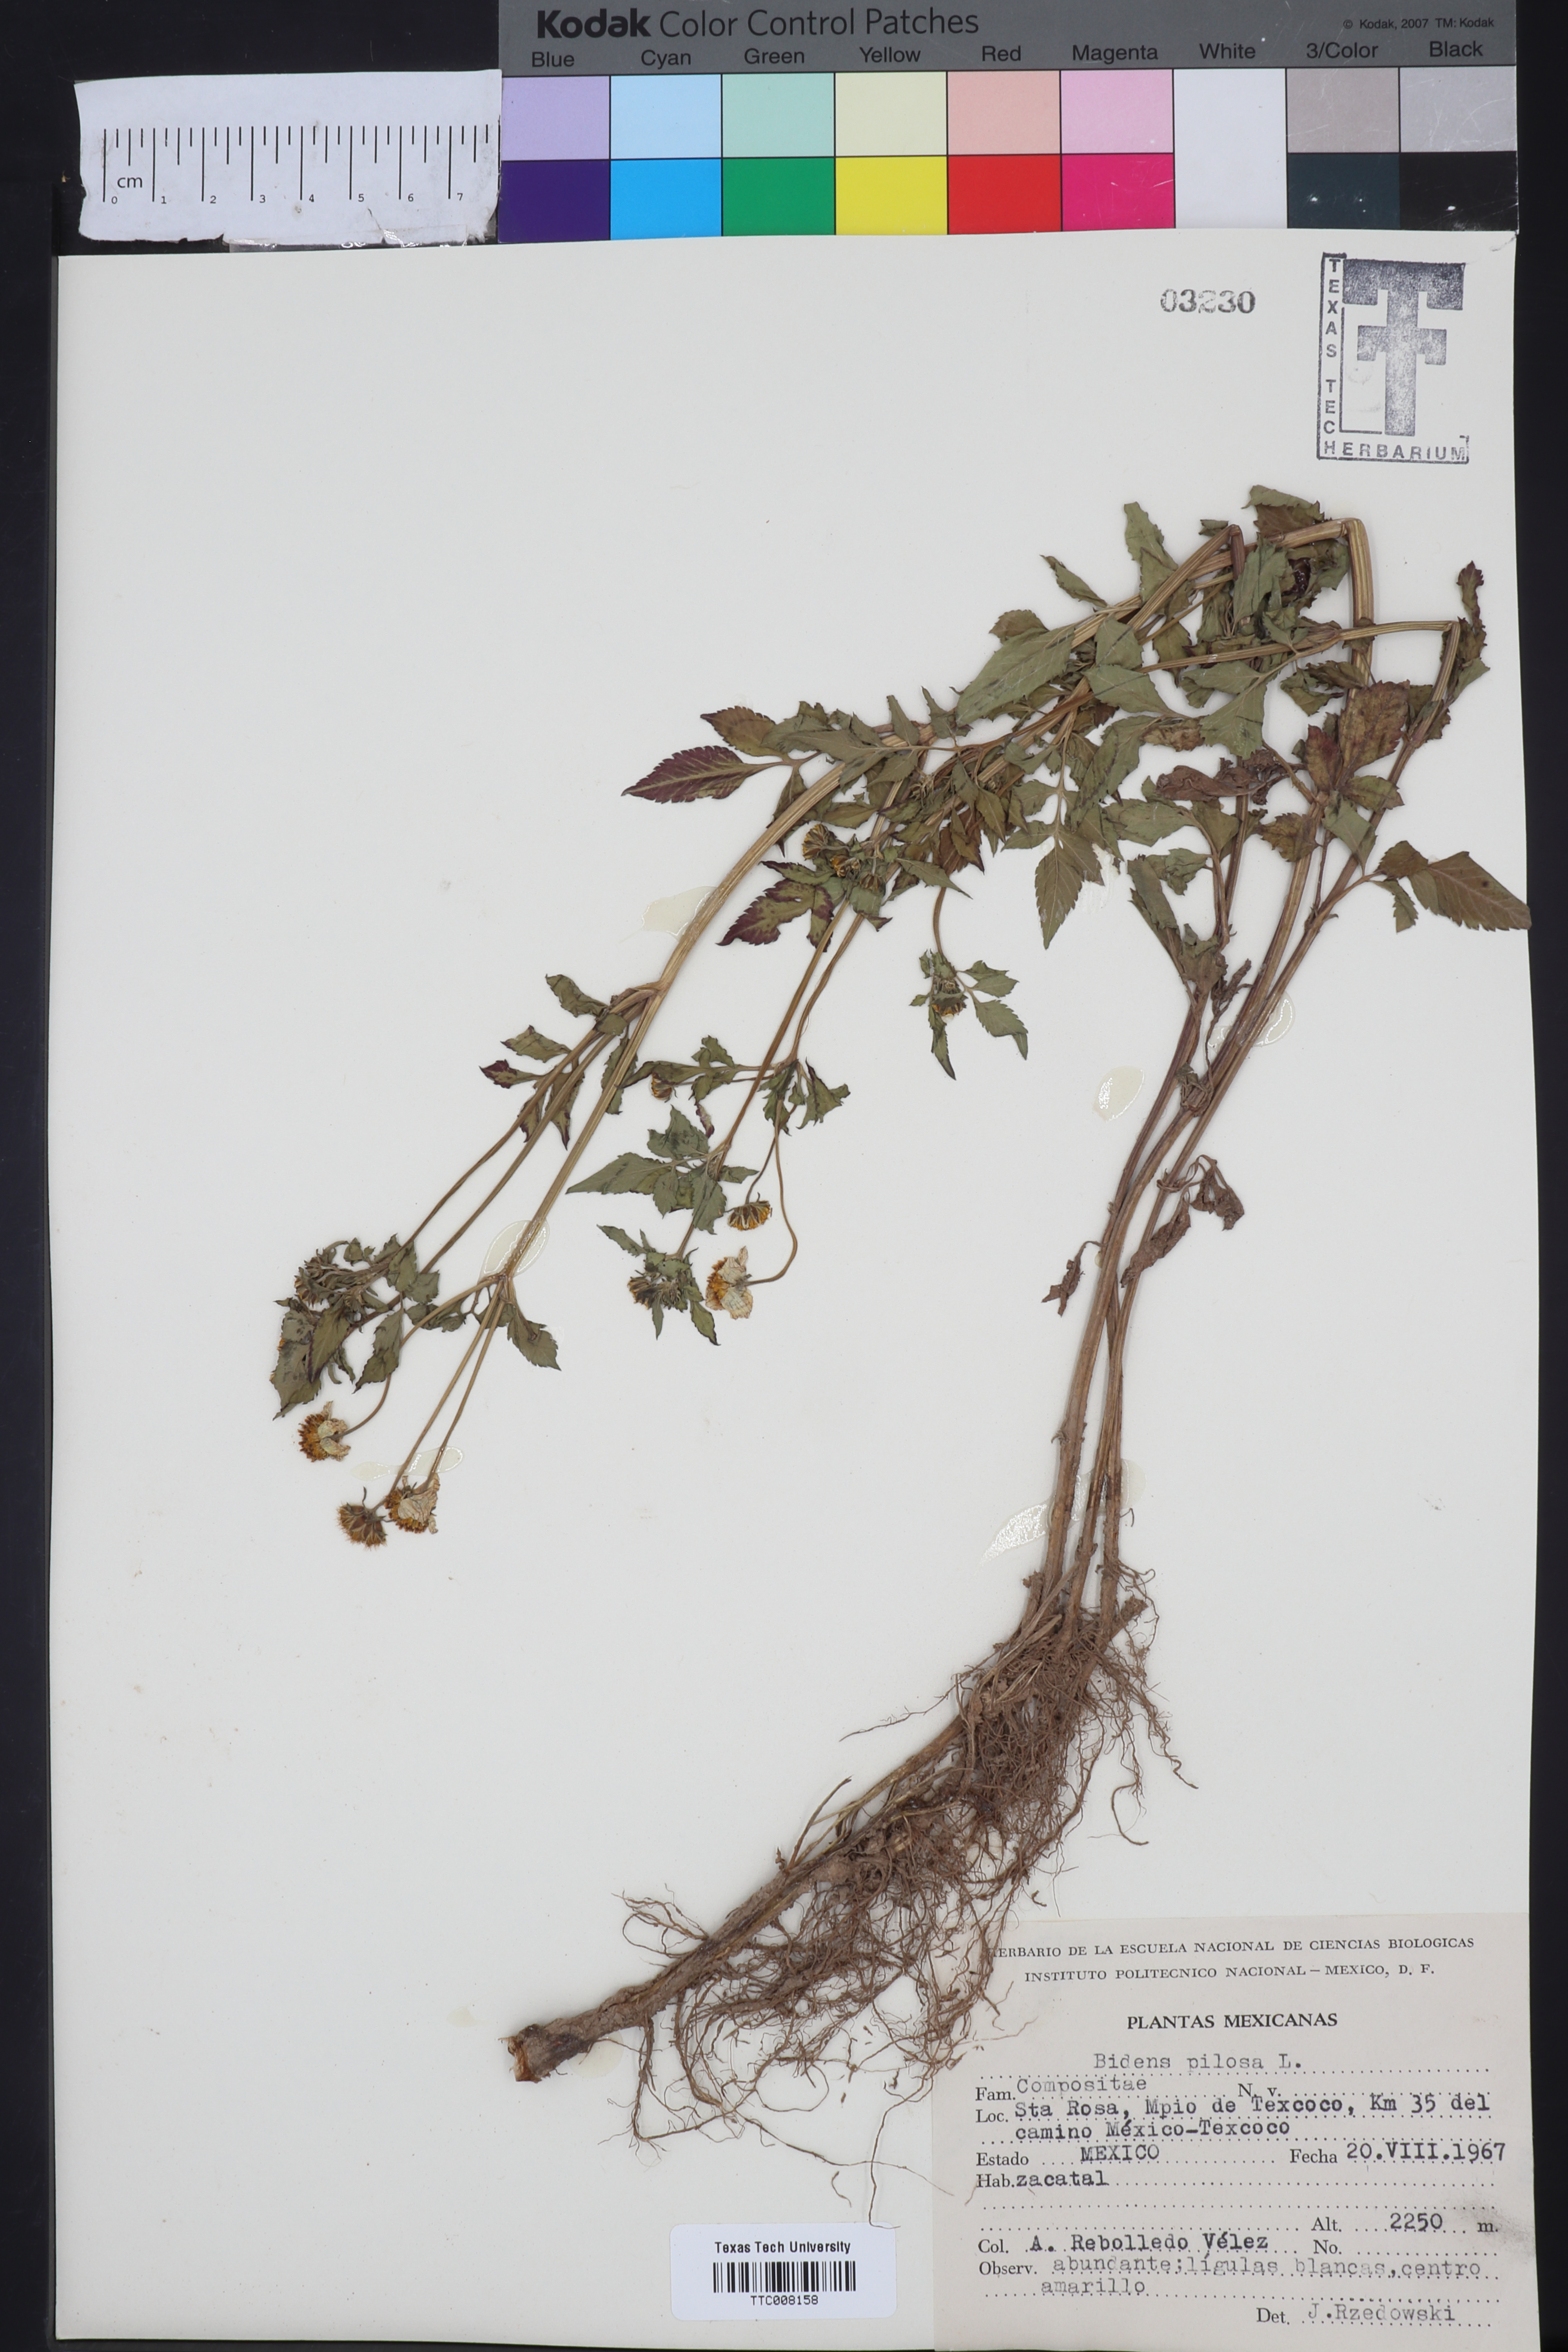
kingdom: Plantae
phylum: Tracheophyta
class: Magnoliopsida
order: Asterales
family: Asteraceae
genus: Bidens
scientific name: Bidens pilosa
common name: Black-jack
